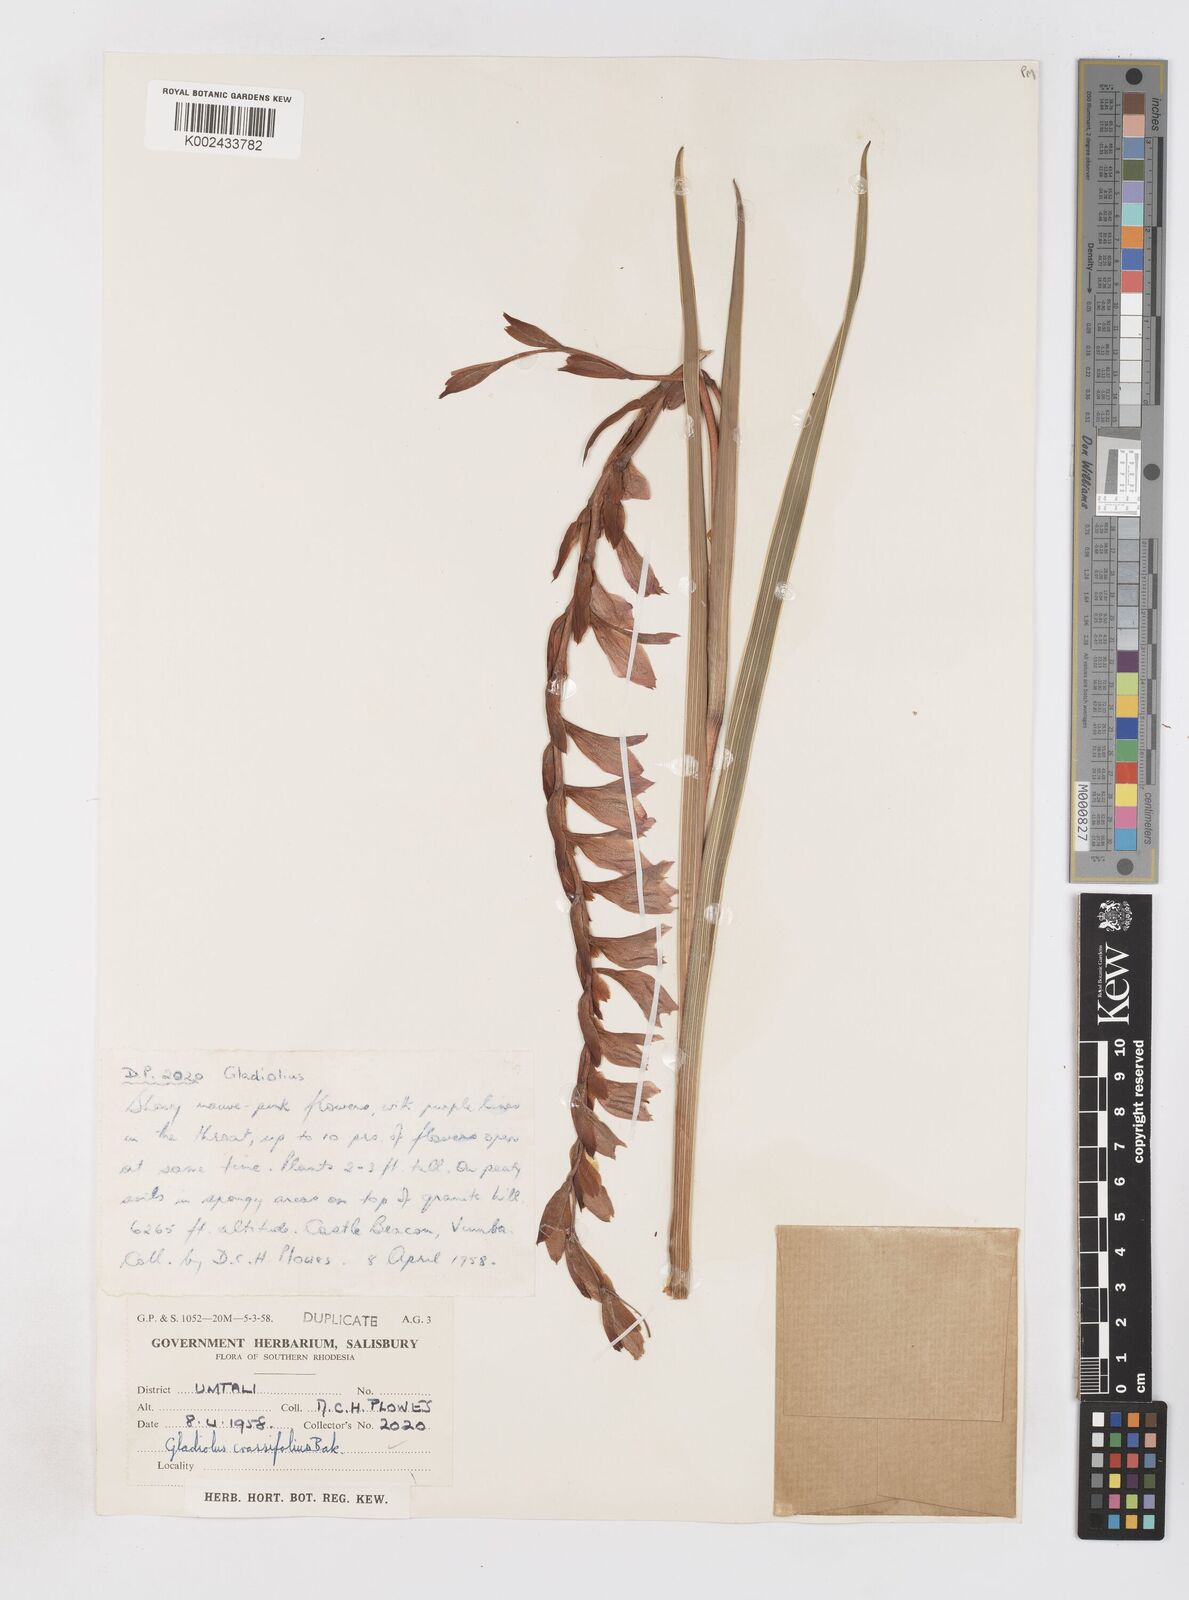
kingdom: Plantae
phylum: Tracheophyta
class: Liliopsida
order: Asparagales
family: Iridaceae
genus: Gladiolus
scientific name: Gladiolus crassifolius
